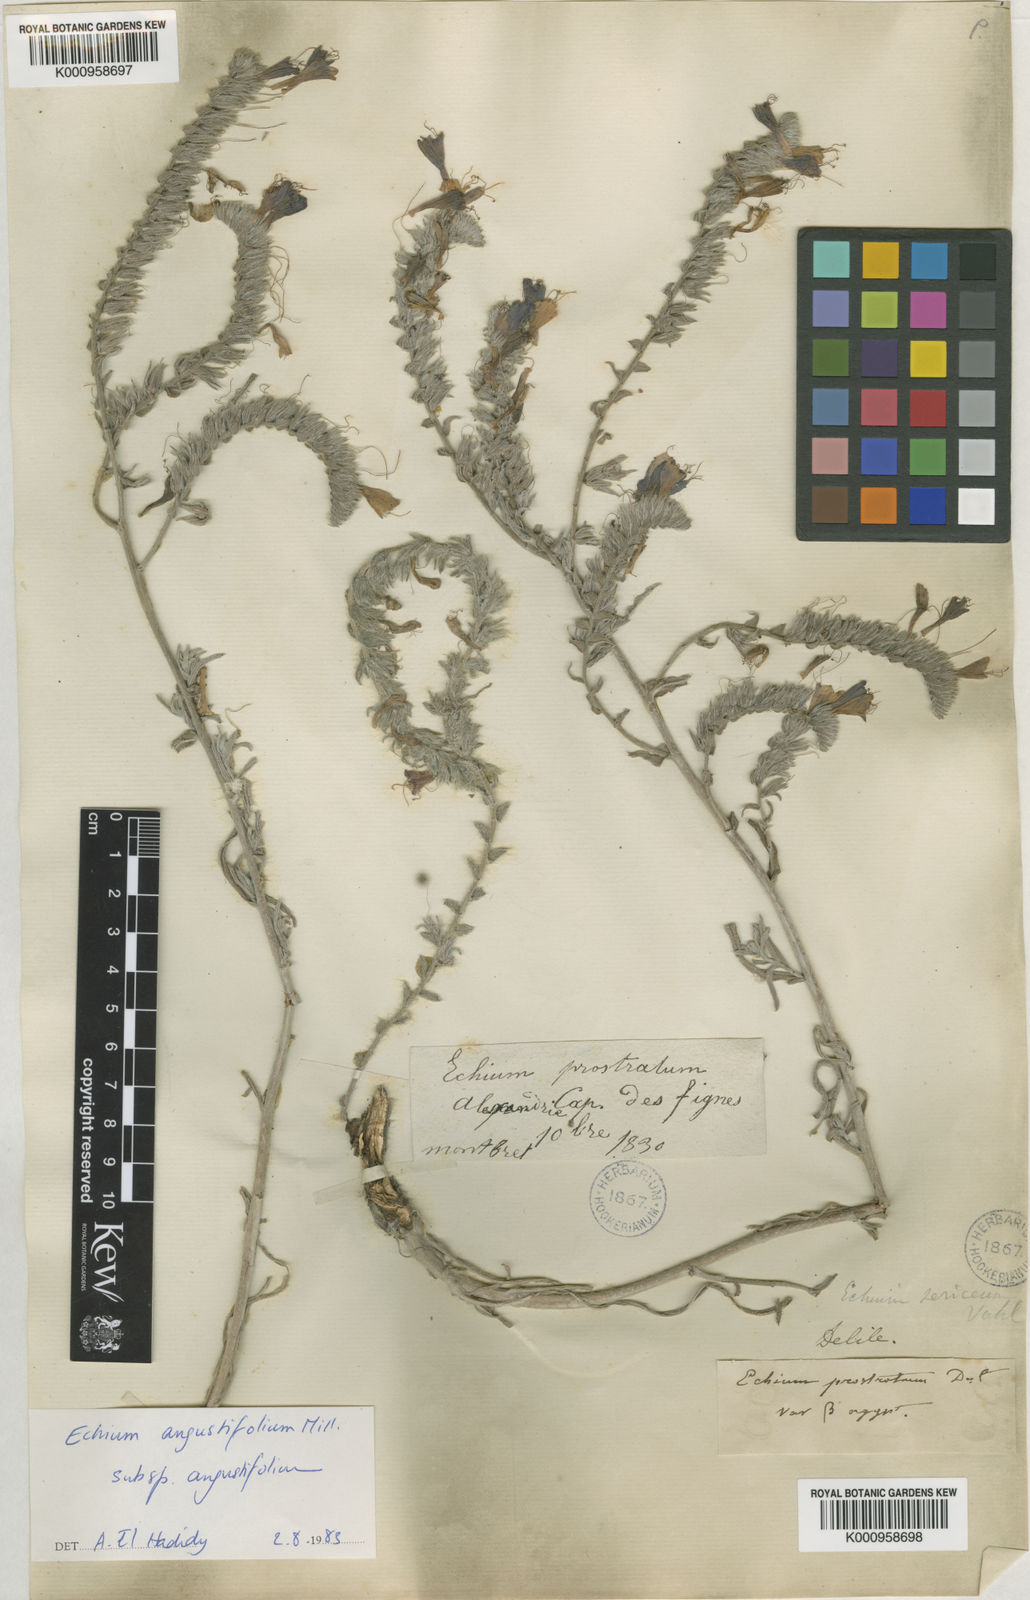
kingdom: Plantae
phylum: Tracheophyta
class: Magnoliopsida
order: Boraginales
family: Boraginaceae
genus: Echium
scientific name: Echium angustifolium
